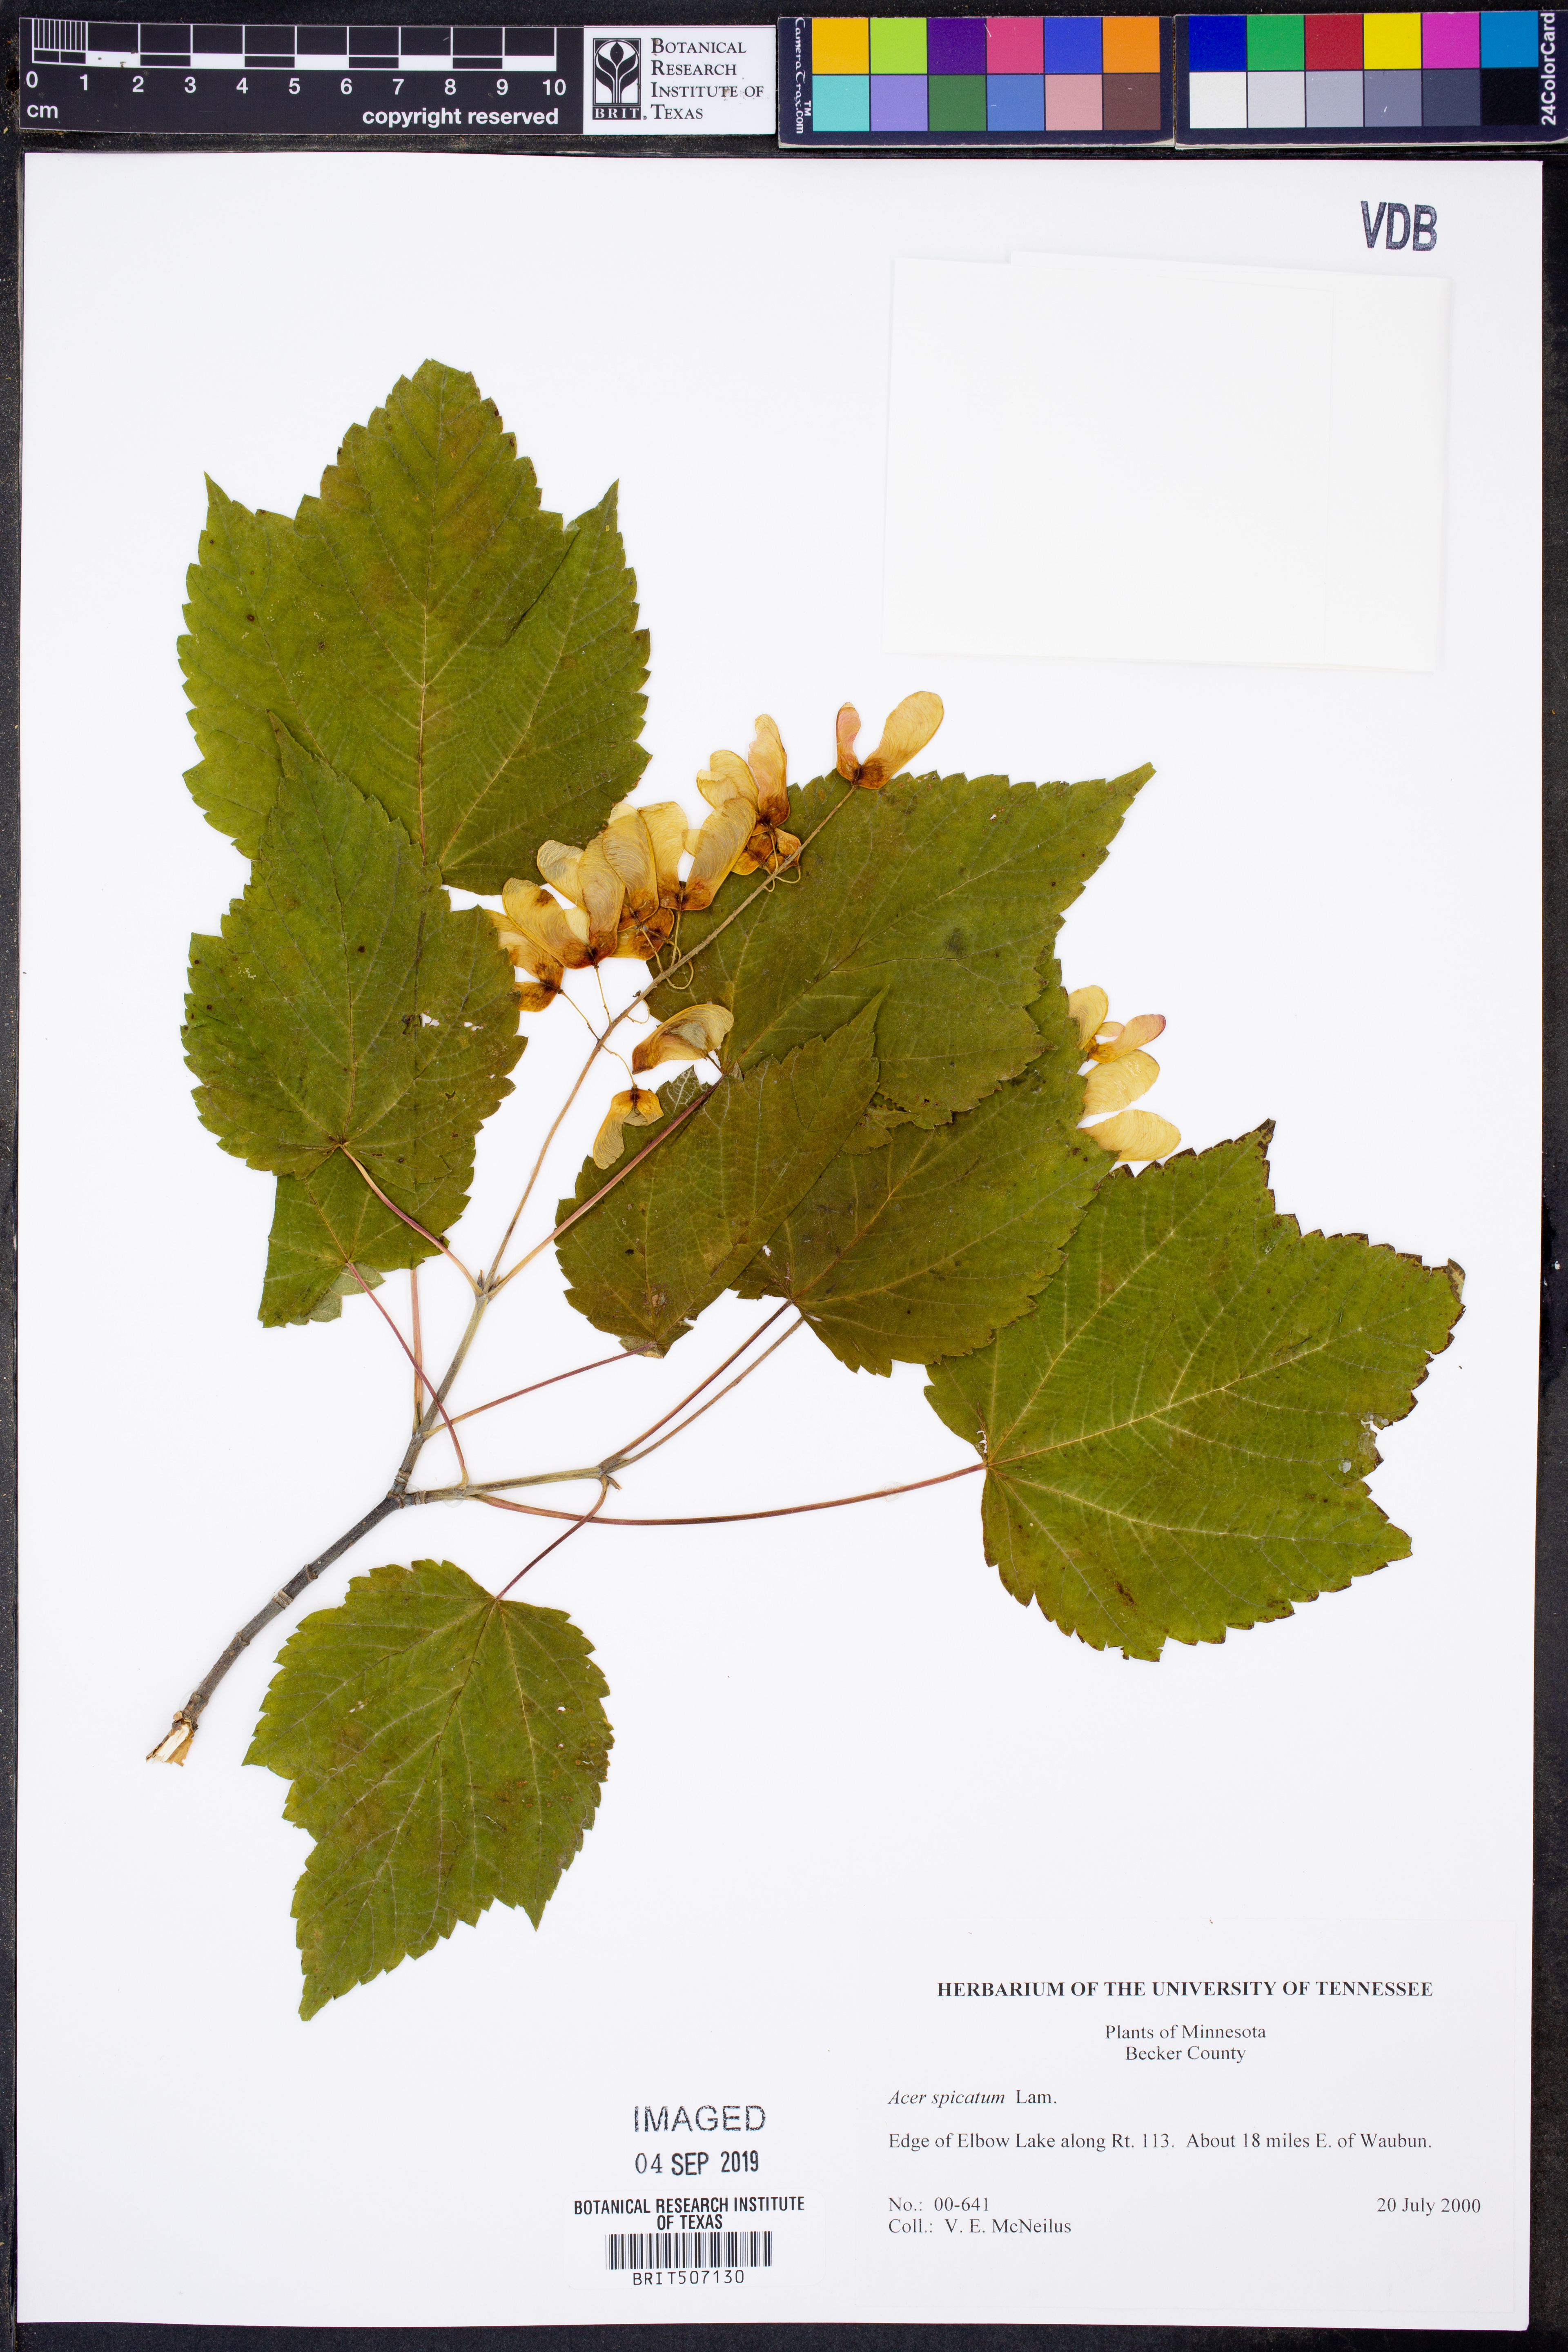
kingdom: Plantae
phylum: Tracheophyta
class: Magnoliopsida
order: Sapindales
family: Sapindaceae
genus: Acer
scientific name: Acer spicatum
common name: Mountain maple
